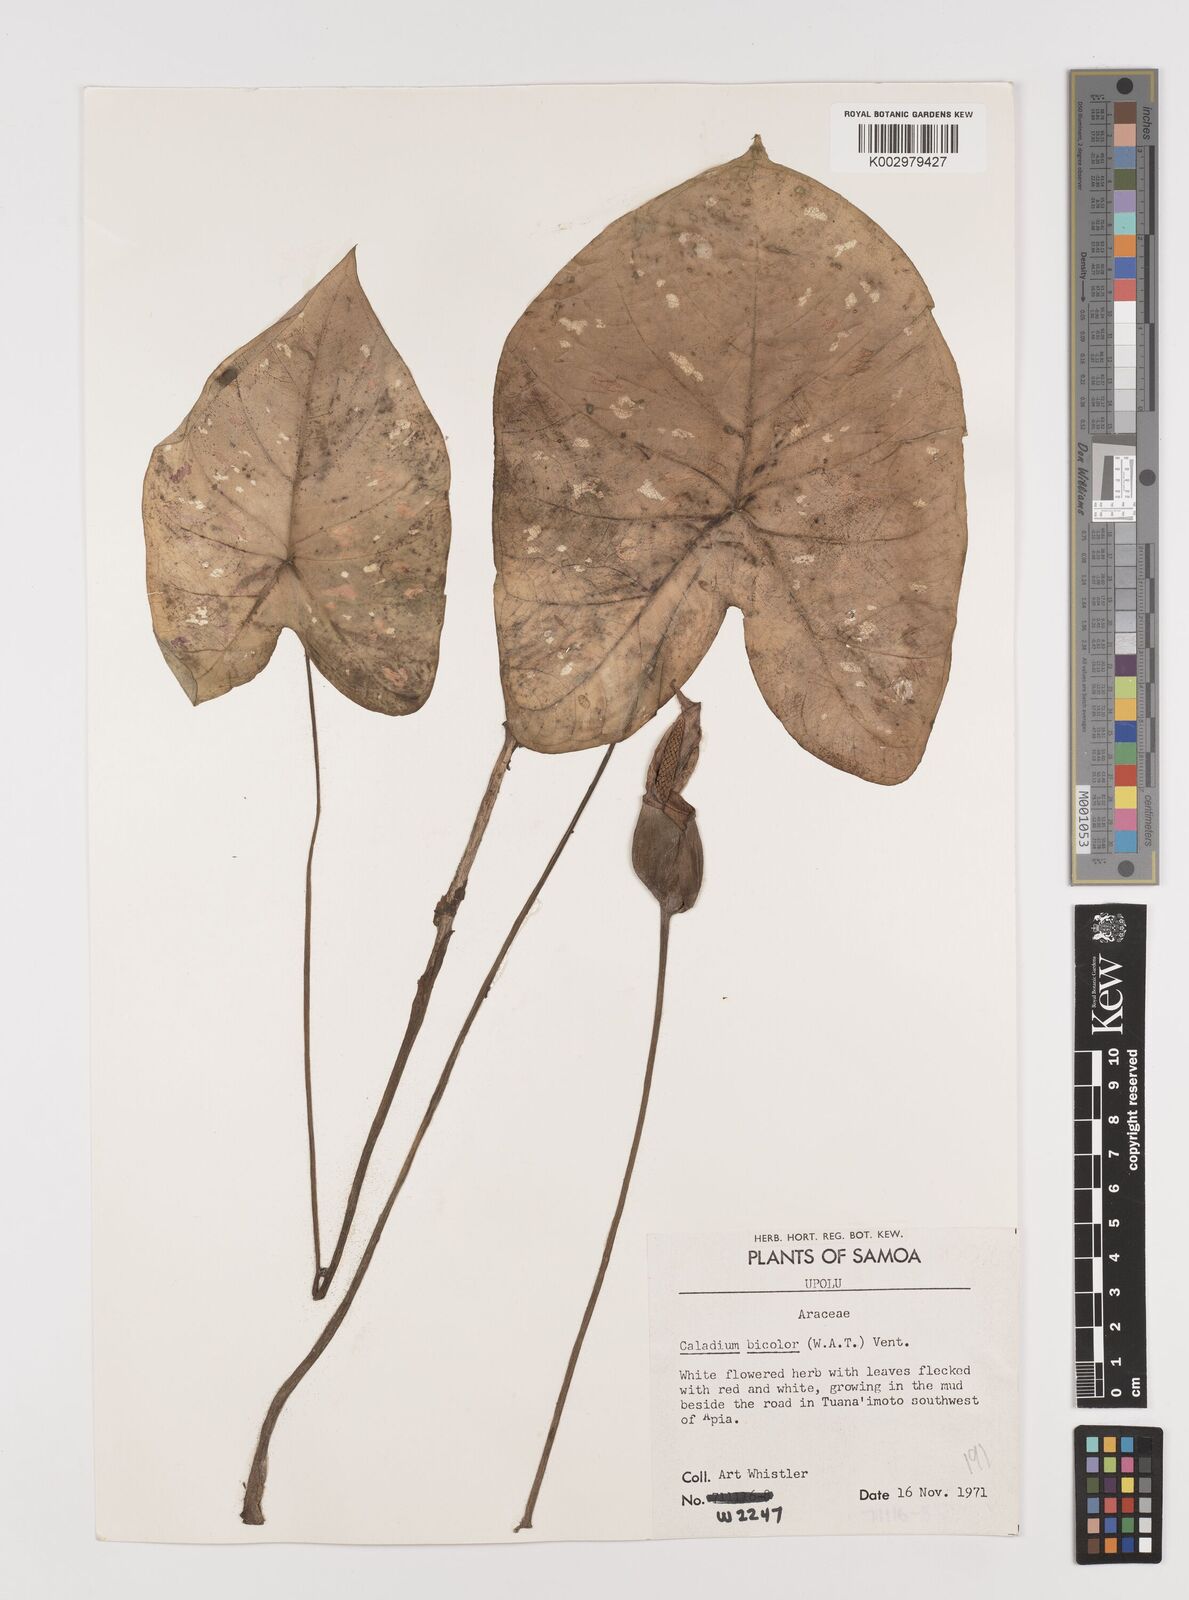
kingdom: Plantae
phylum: Tracheophyta
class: Liliopsida
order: Alismatales
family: Araceae
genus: Caladium
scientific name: Caladium bicolor
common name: Artist's pallet
